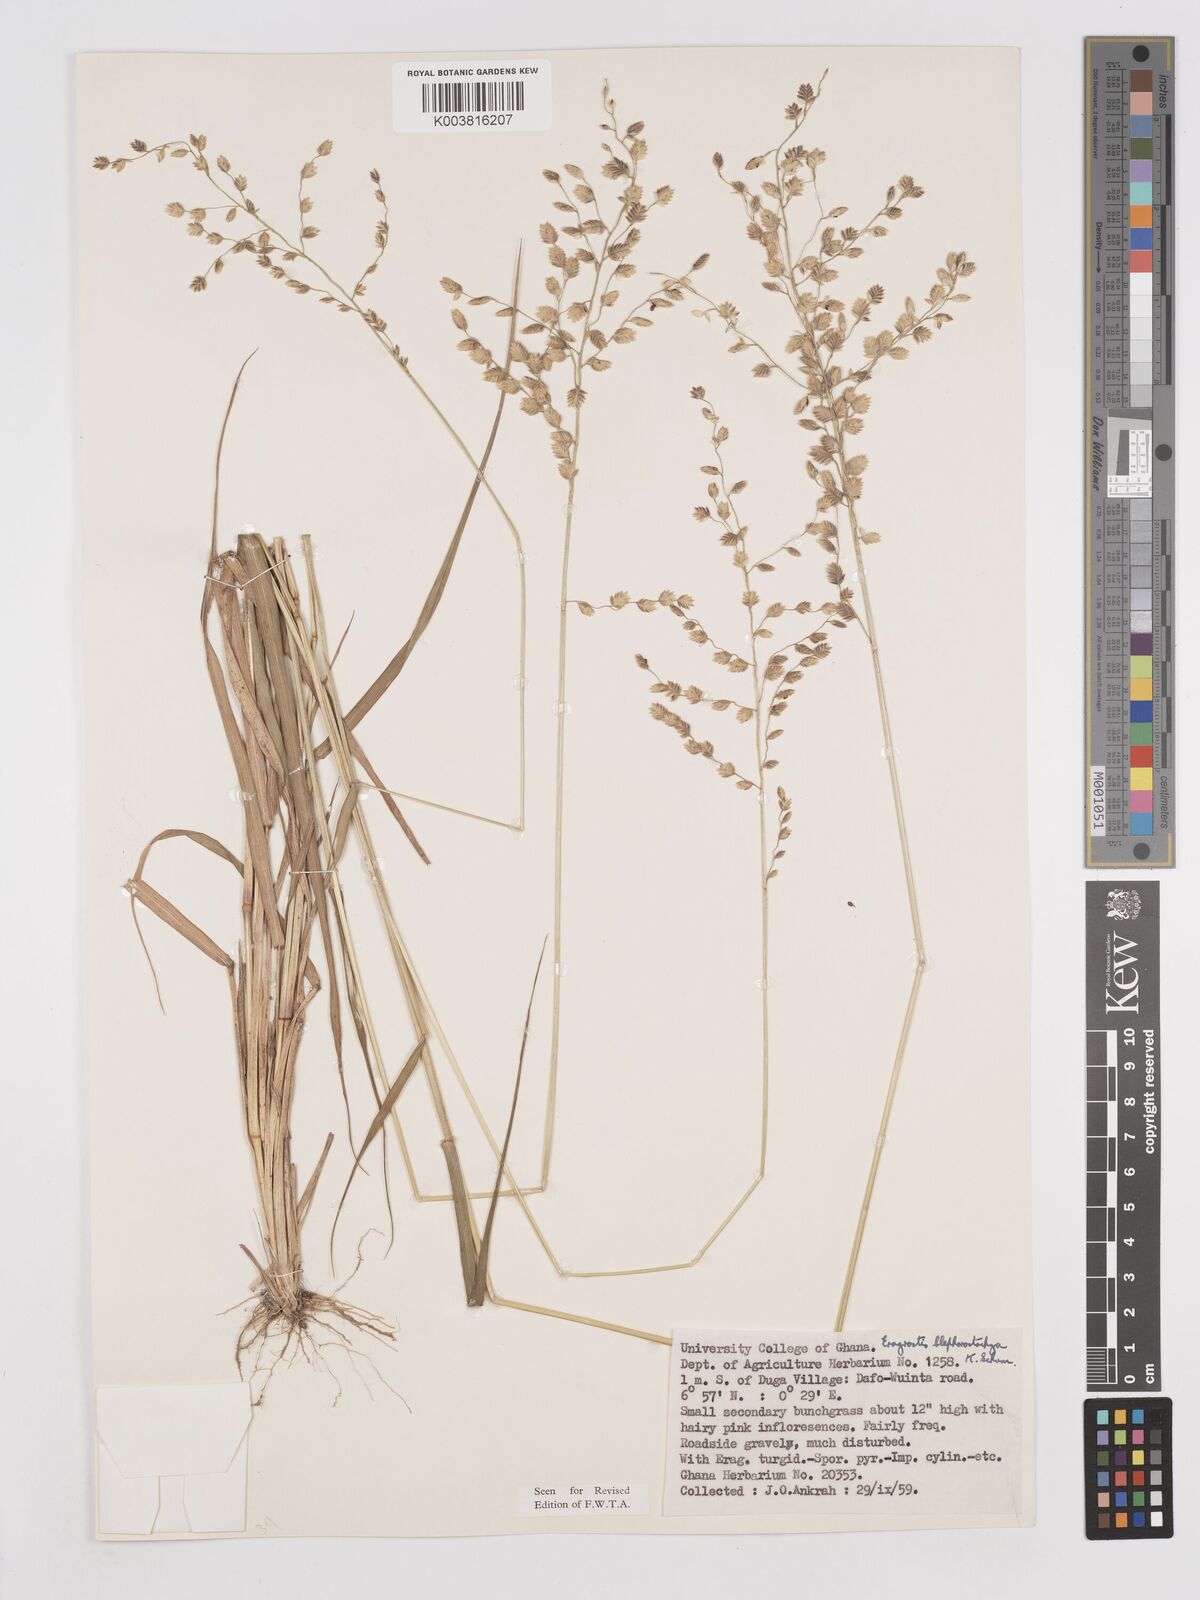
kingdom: Plantae
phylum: Tracheophyta
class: Liliopsida
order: Poales
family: Poaceae
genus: Eragrostis
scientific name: Eragrostis blepharostachya
